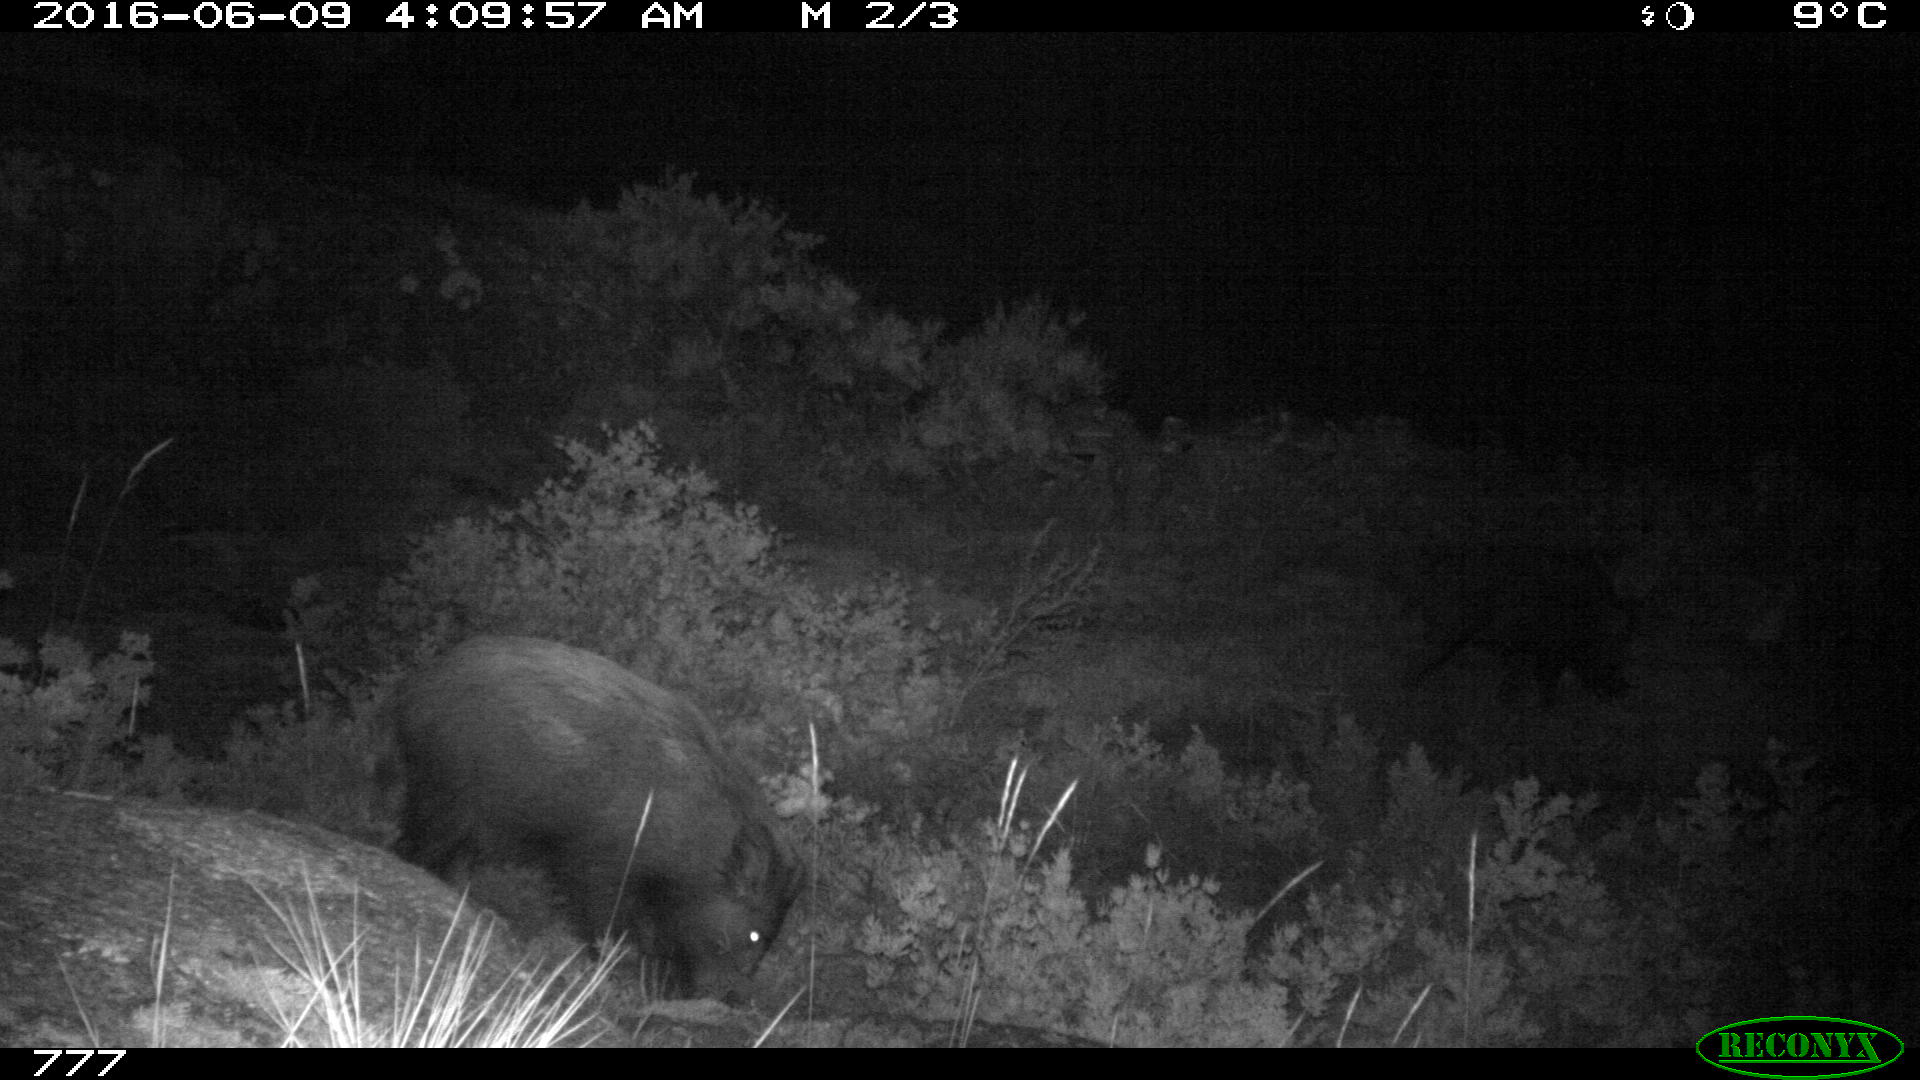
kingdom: Animalia
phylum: Chordata
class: Mammalia
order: Artiodactyla
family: Suidae
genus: Sus
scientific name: Sus scrofa
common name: Wild boar
